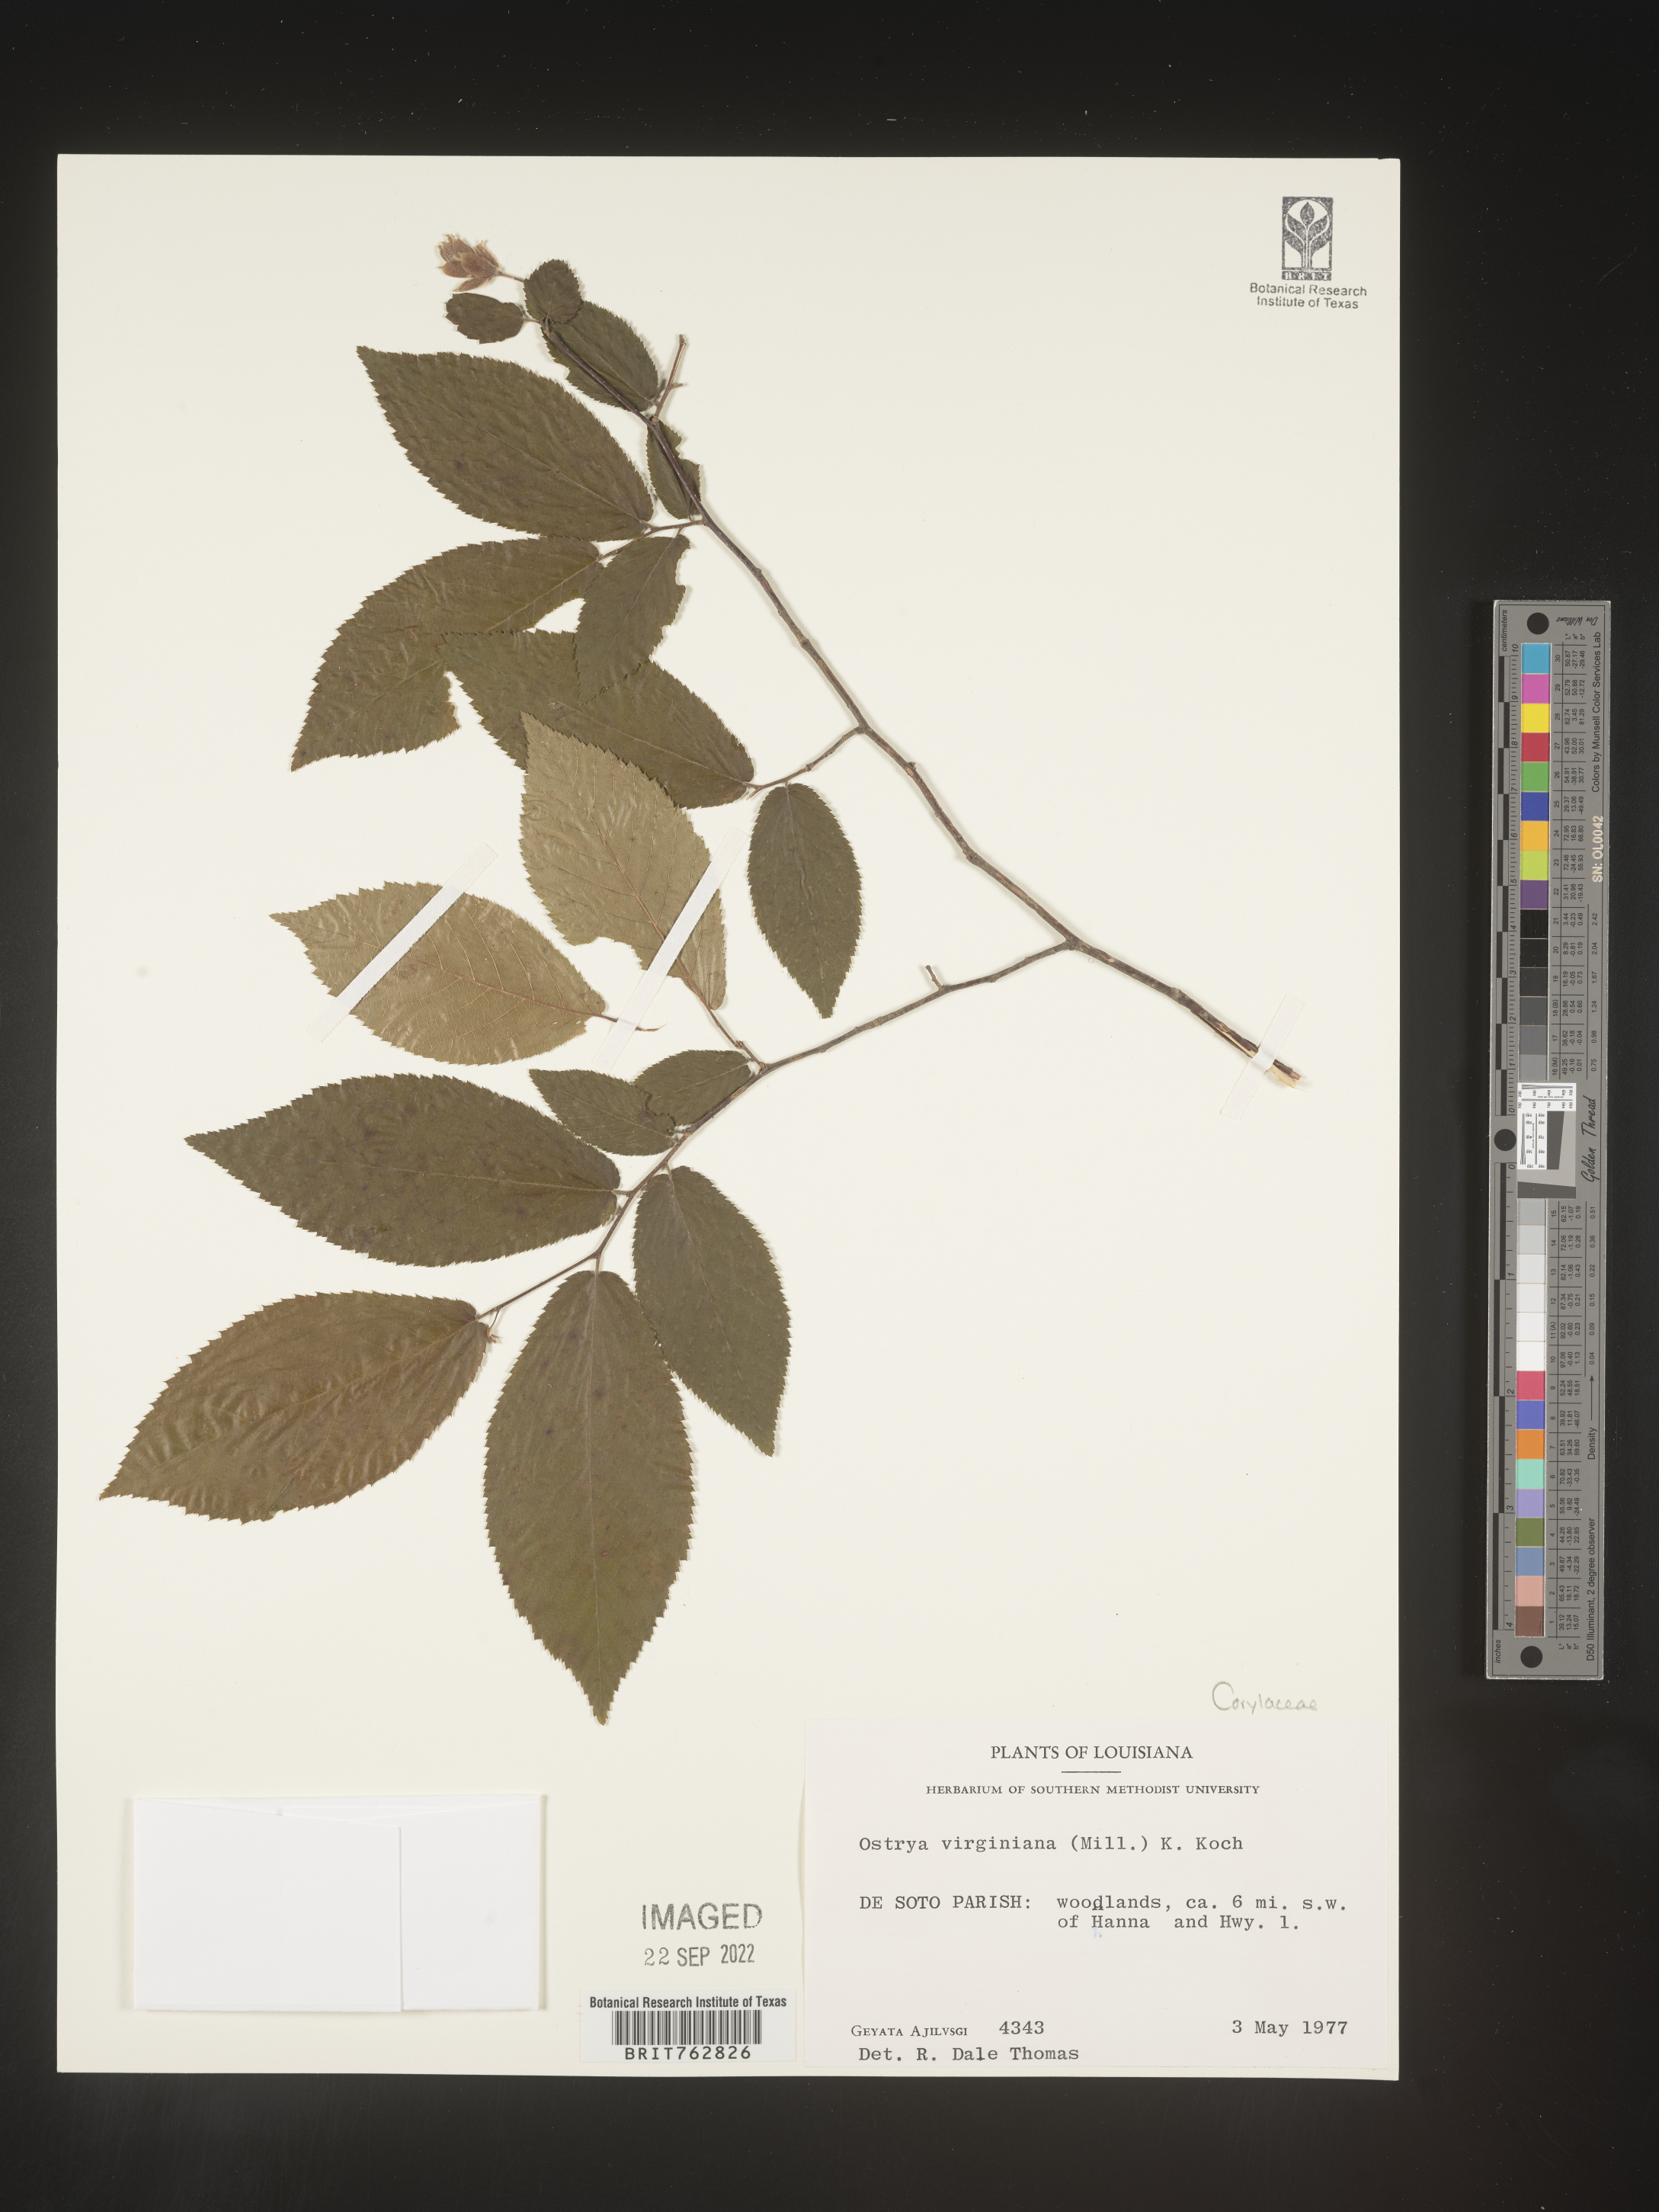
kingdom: Plantae
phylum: Tracheophyta
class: Magnoliopsida
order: Fagales
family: Betulaceae
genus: Ostrya
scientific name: Ostrya virginiana
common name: Ironwood
